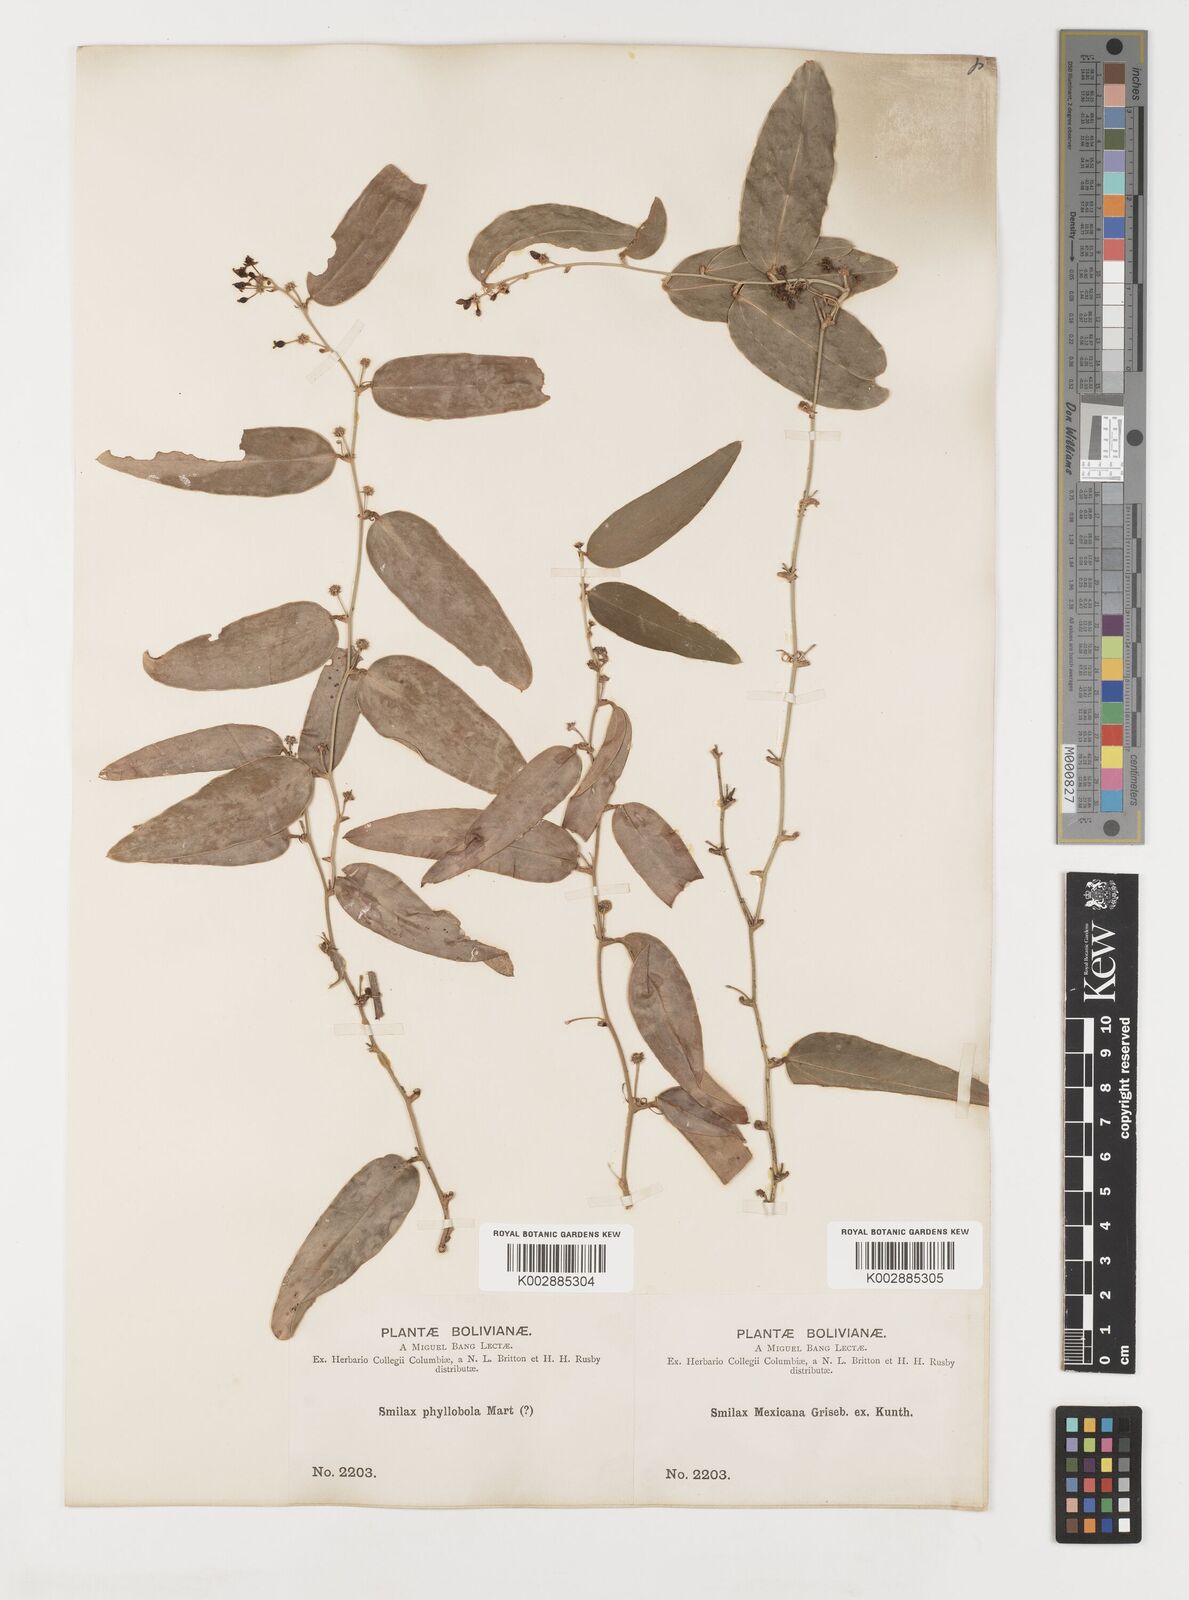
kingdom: Plantae
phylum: Tracheophyta
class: Liliopsida
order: Liliales
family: Smilacaceae
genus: Smilax
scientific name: Smilax campestris
